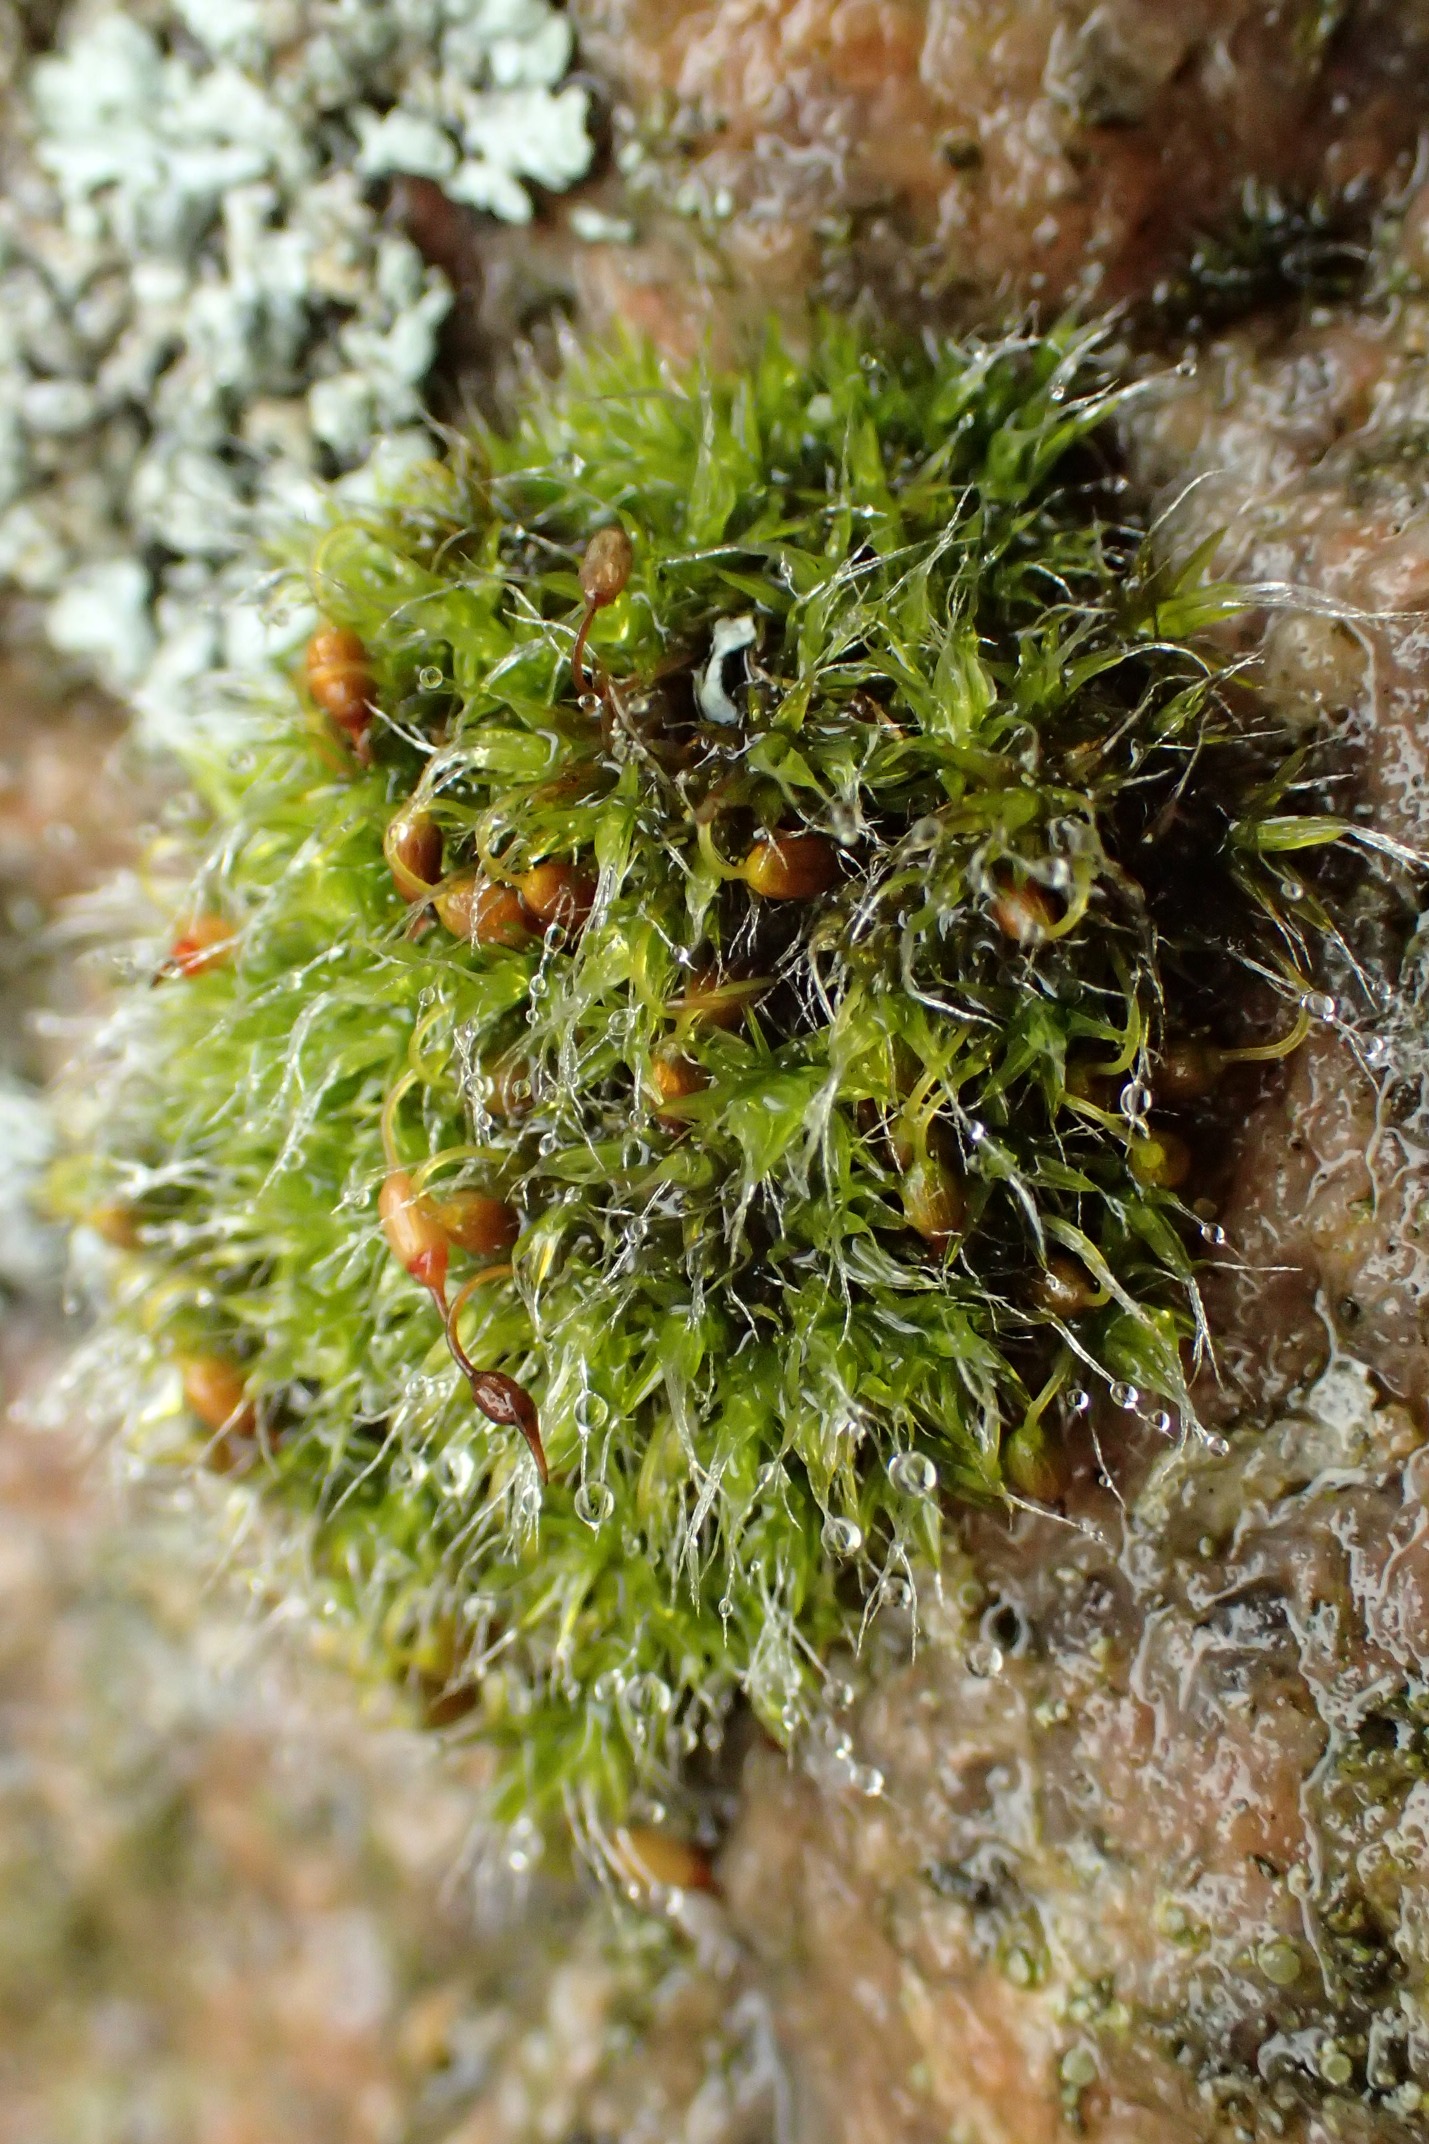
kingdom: Plantae
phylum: Bryophyta
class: Bryopsida
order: Grimmiales
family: Grimmiaceae
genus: Grimmia
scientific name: Grimmia pulvinata
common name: Pude-gråmos
